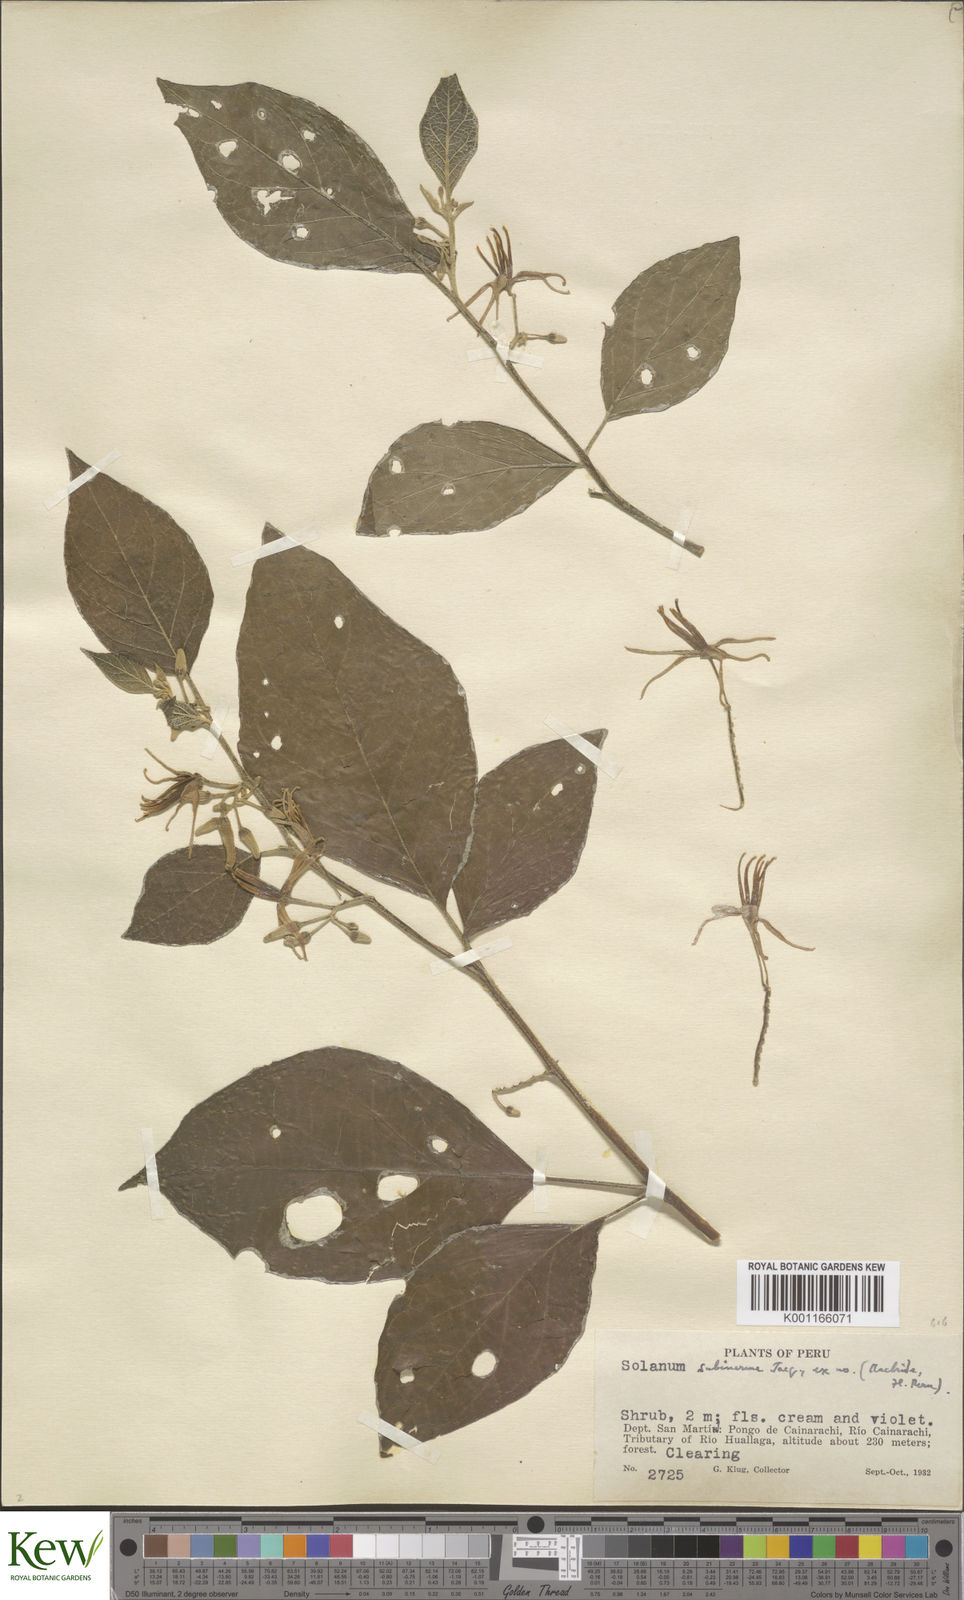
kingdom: Plantae
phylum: Tracheophyta
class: Magnoliopsida
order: Solanales
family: Solanaceae
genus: Solanum
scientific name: Solanum subinerme
